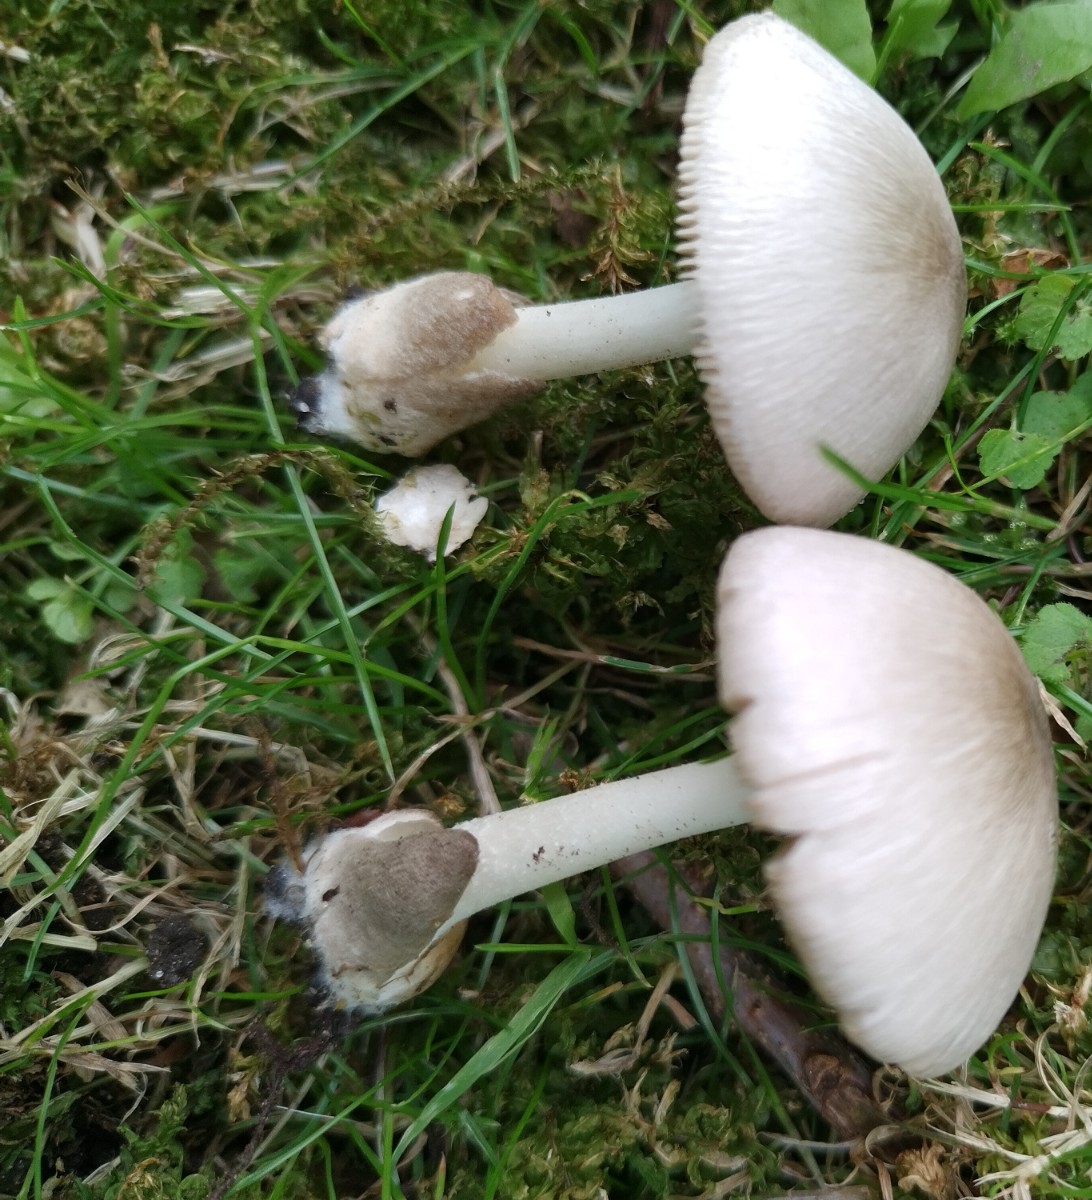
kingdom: Fungi
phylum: Basidiomycota
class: Agaricomycetes
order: Agaricales
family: Pluteaceae
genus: Volvariella
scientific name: Volvariella murinella
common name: musegrå posesvamp
